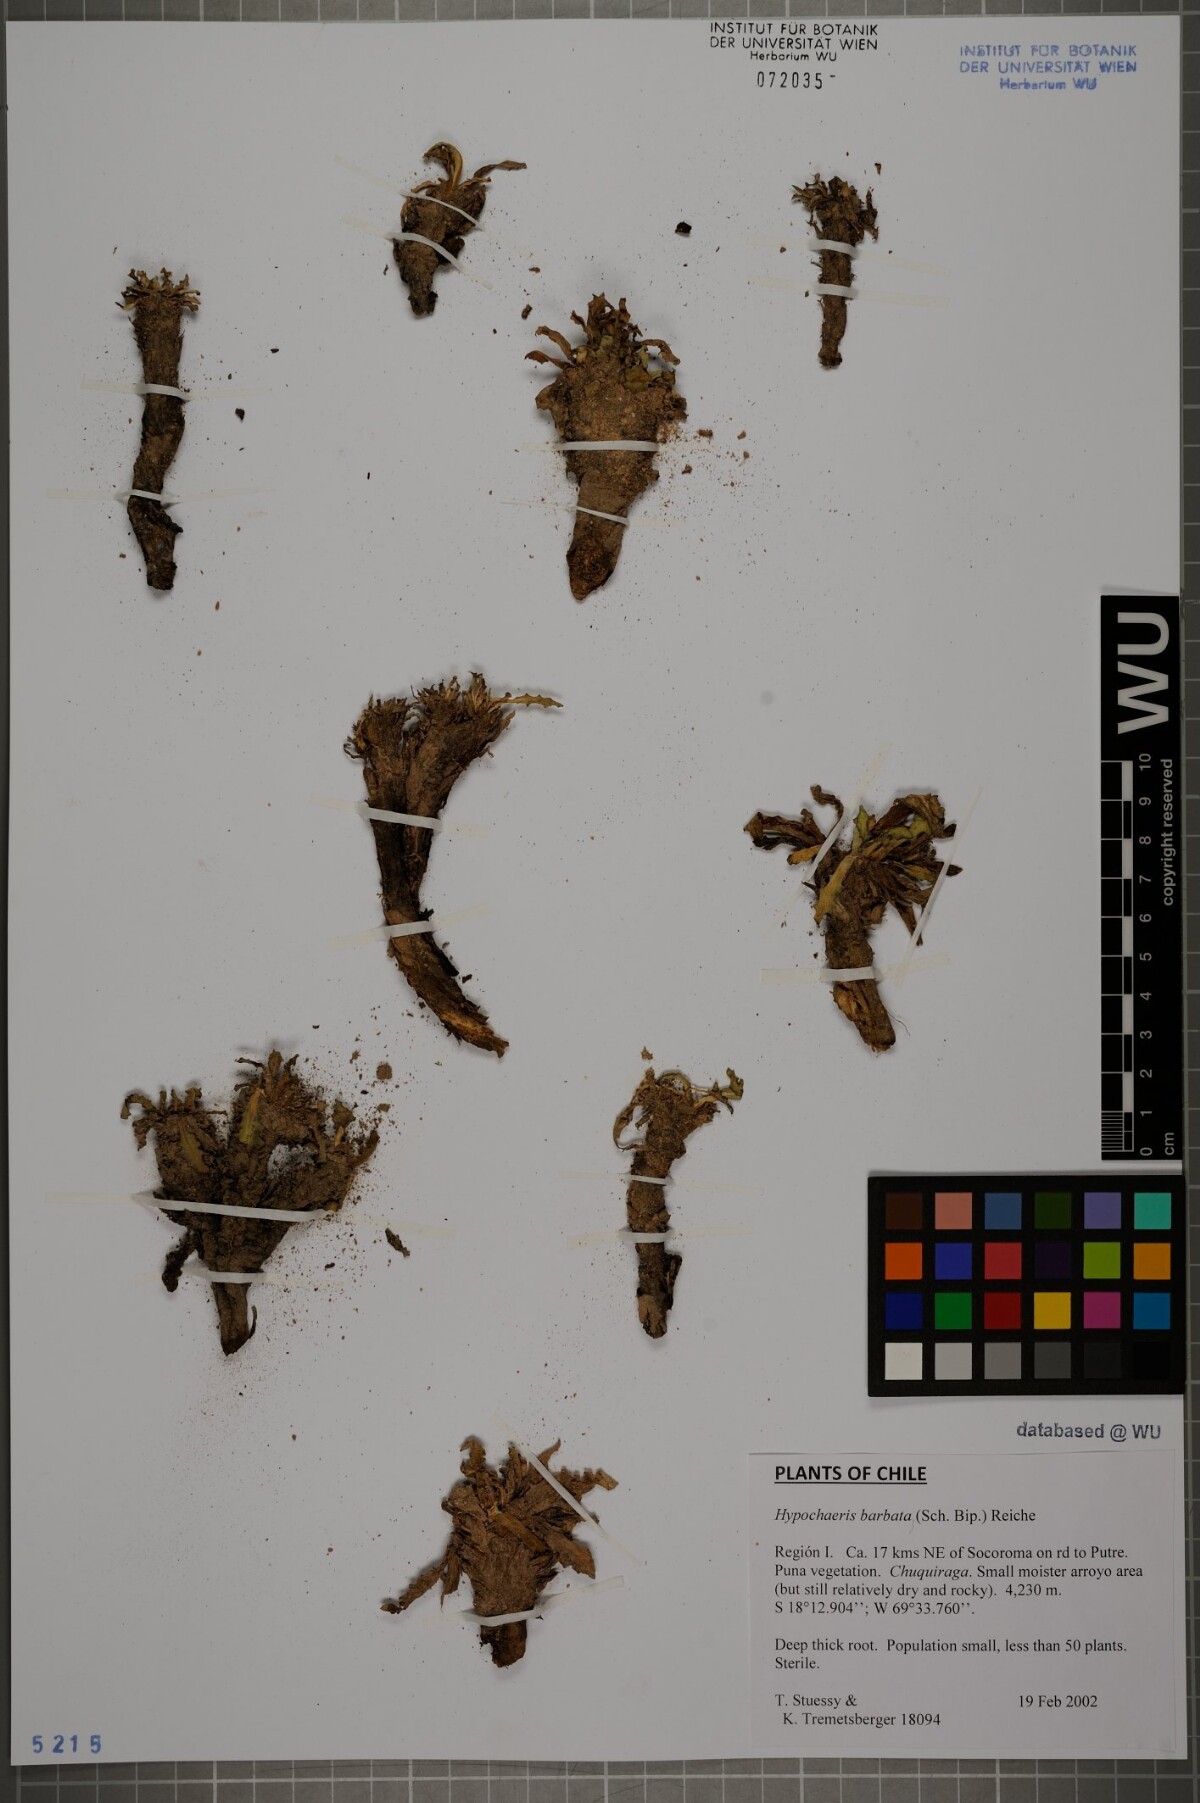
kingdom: Plantae
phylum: Tracheophyta
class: Magnoliopsida
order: Asterales
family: Asteraceae
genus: Hypochaeris
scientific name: Hypochaeris sessiliflora
